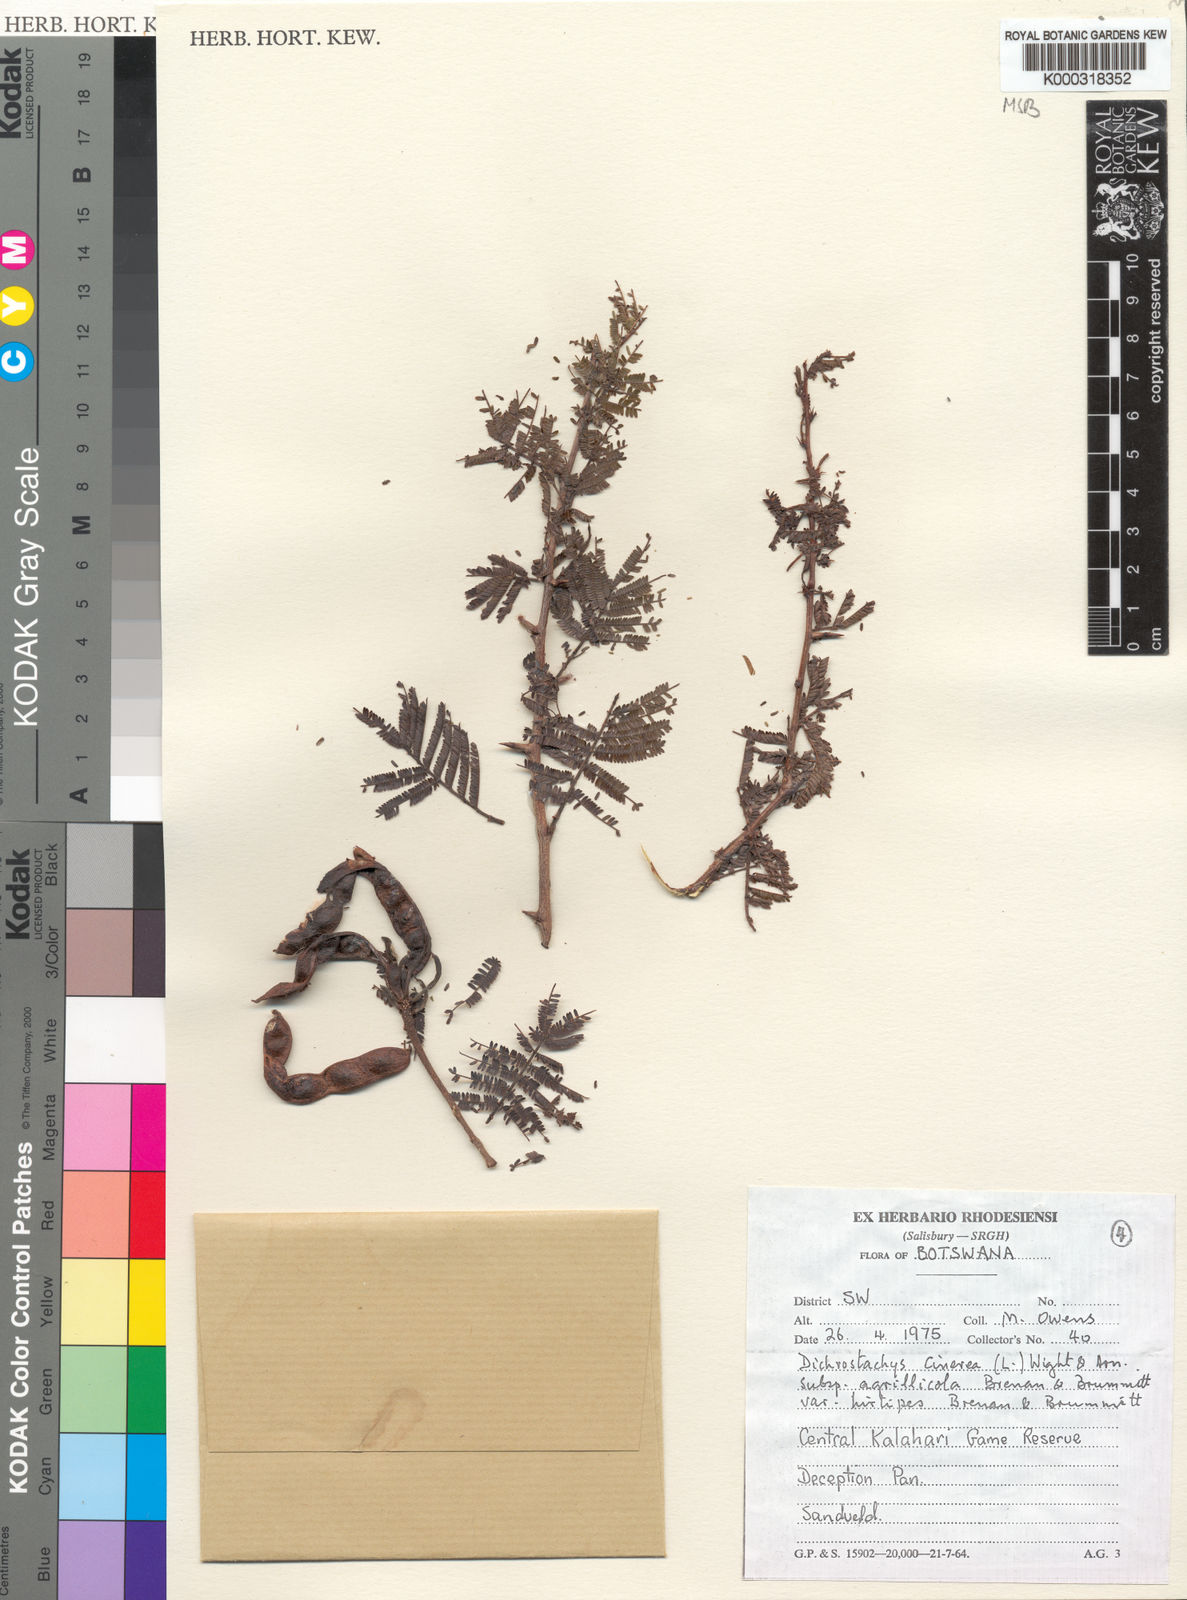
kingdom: Plantae
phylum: Tracheophyta
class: Magnoliopsida
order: Fabales
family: Fabaceae
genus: Dichrostachys
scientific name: Dichrostachys cinerea
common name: Sicklebush
